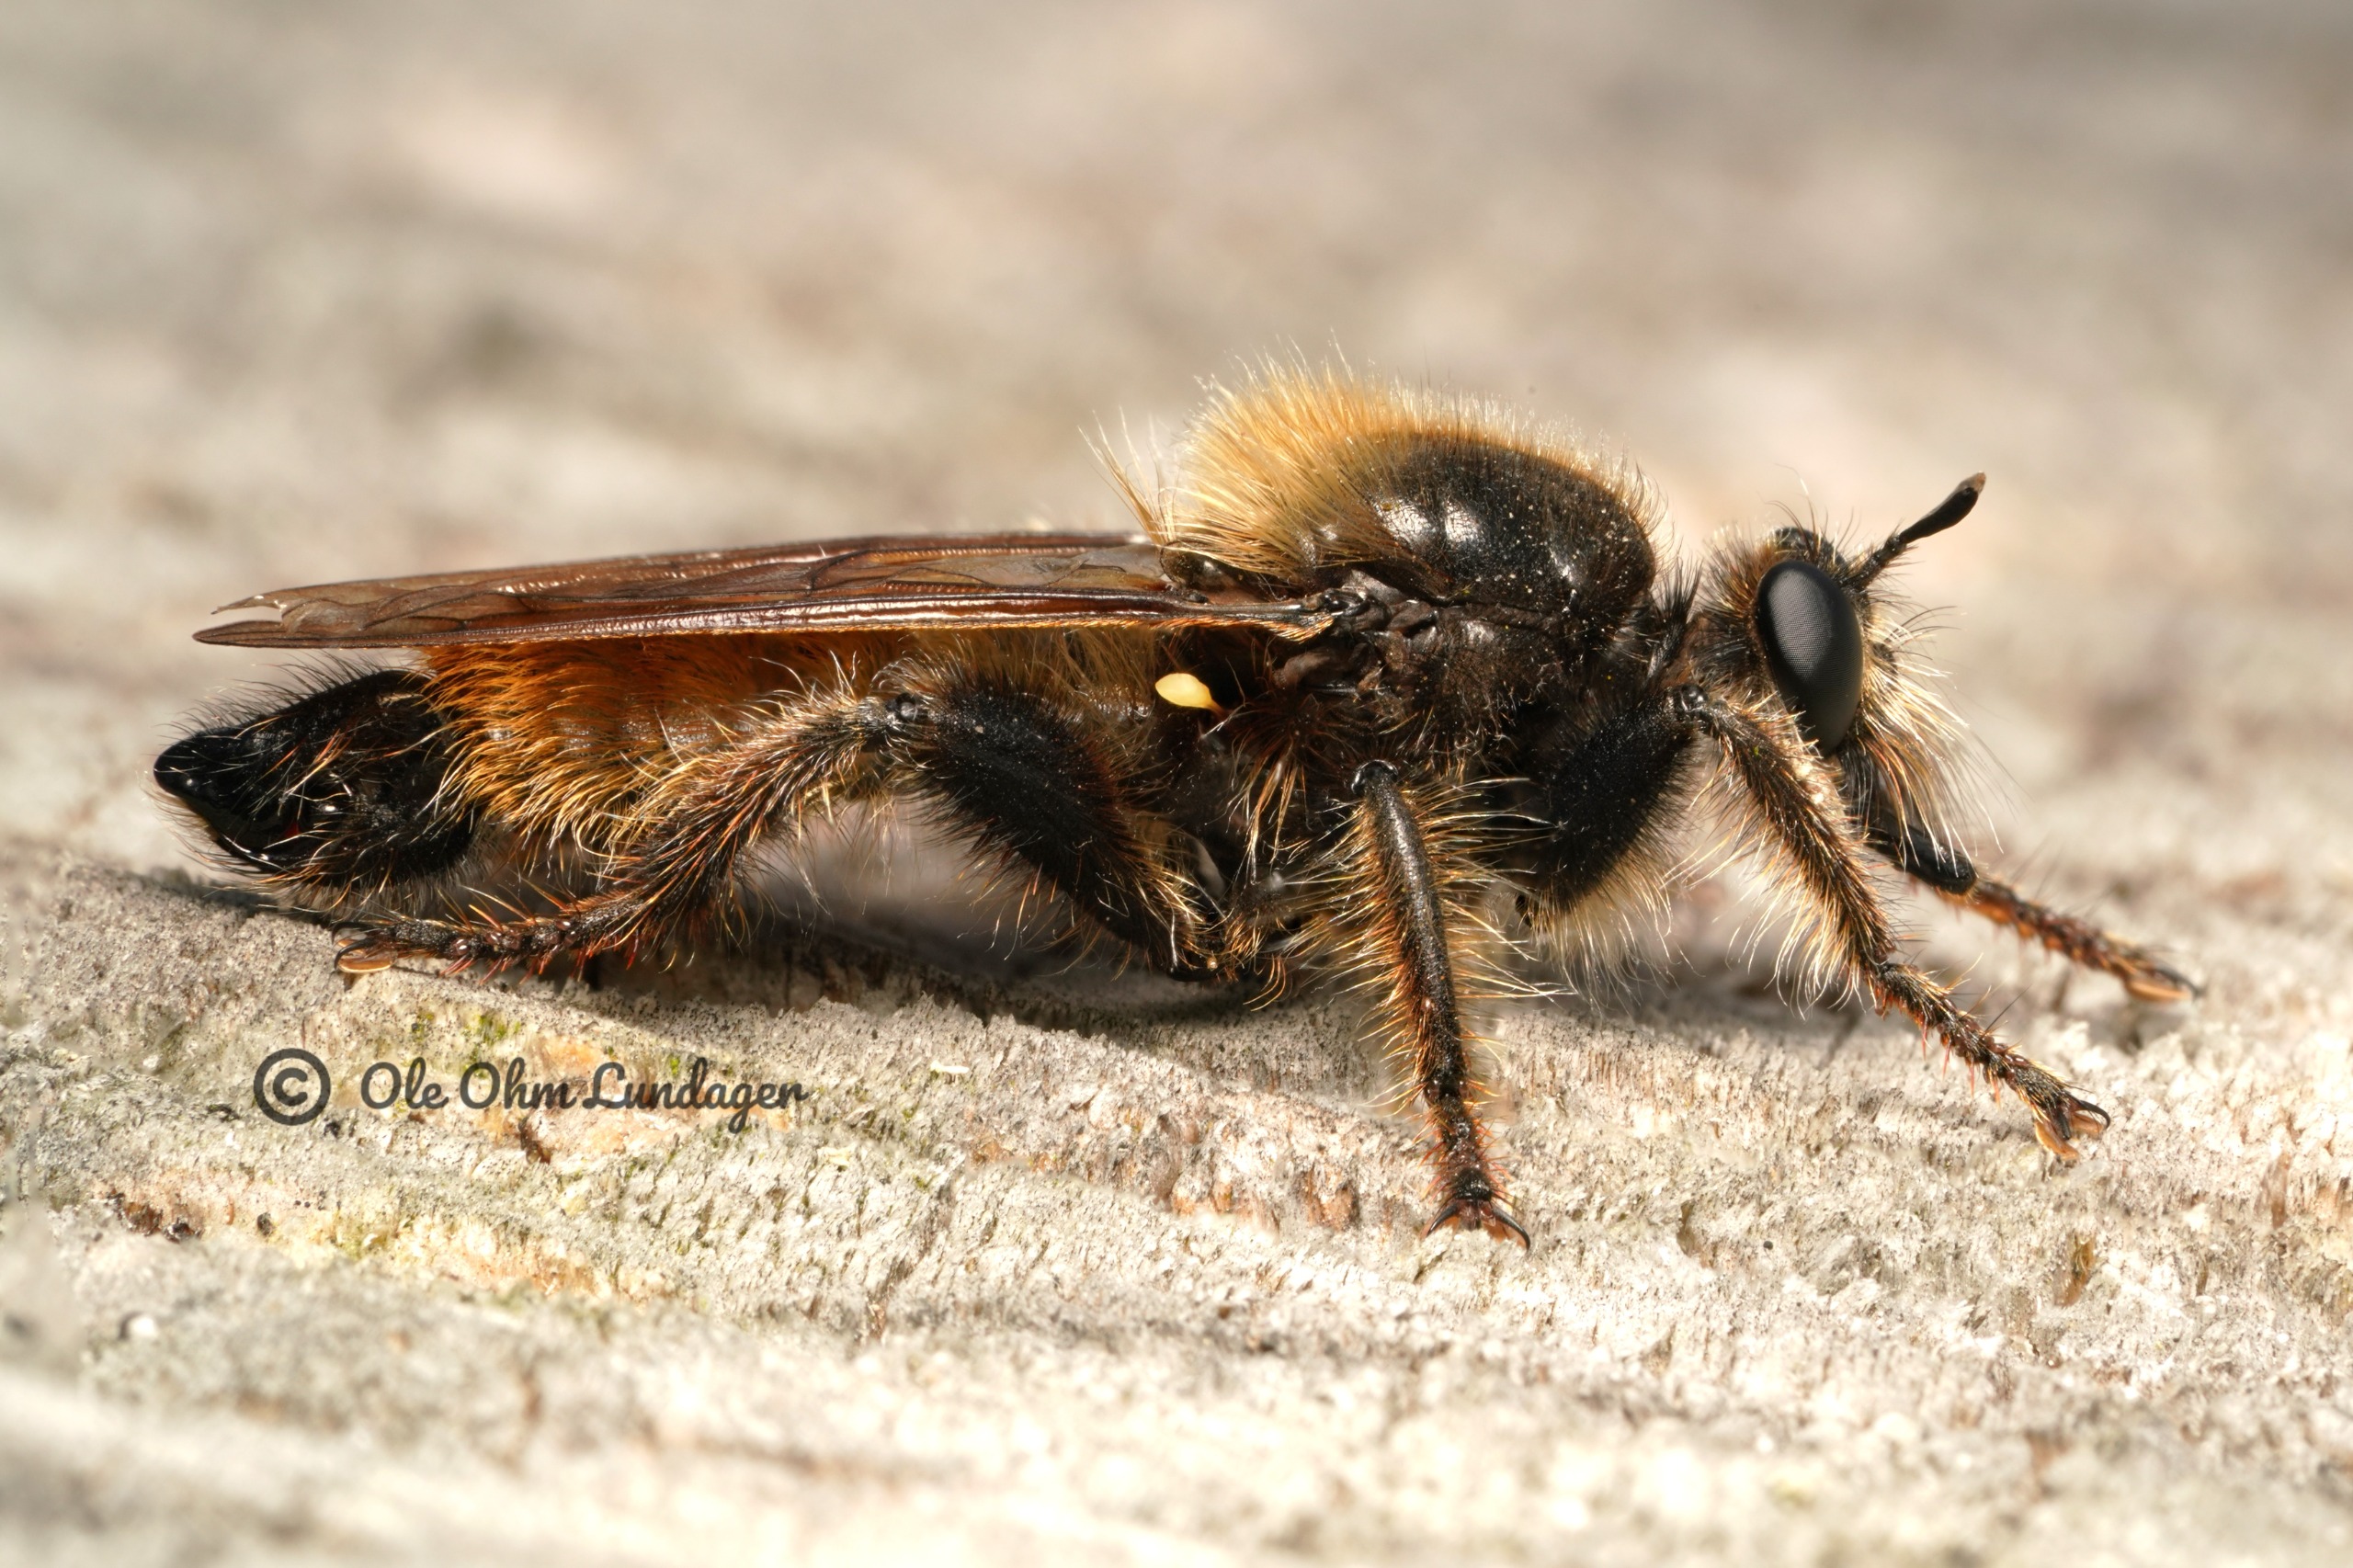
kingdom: Animalia
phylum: Arthropoda
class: Insecta
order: Diptera
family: Asilidae
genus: Laphria
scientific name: Laphria flava
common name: Gul vedrovflue
